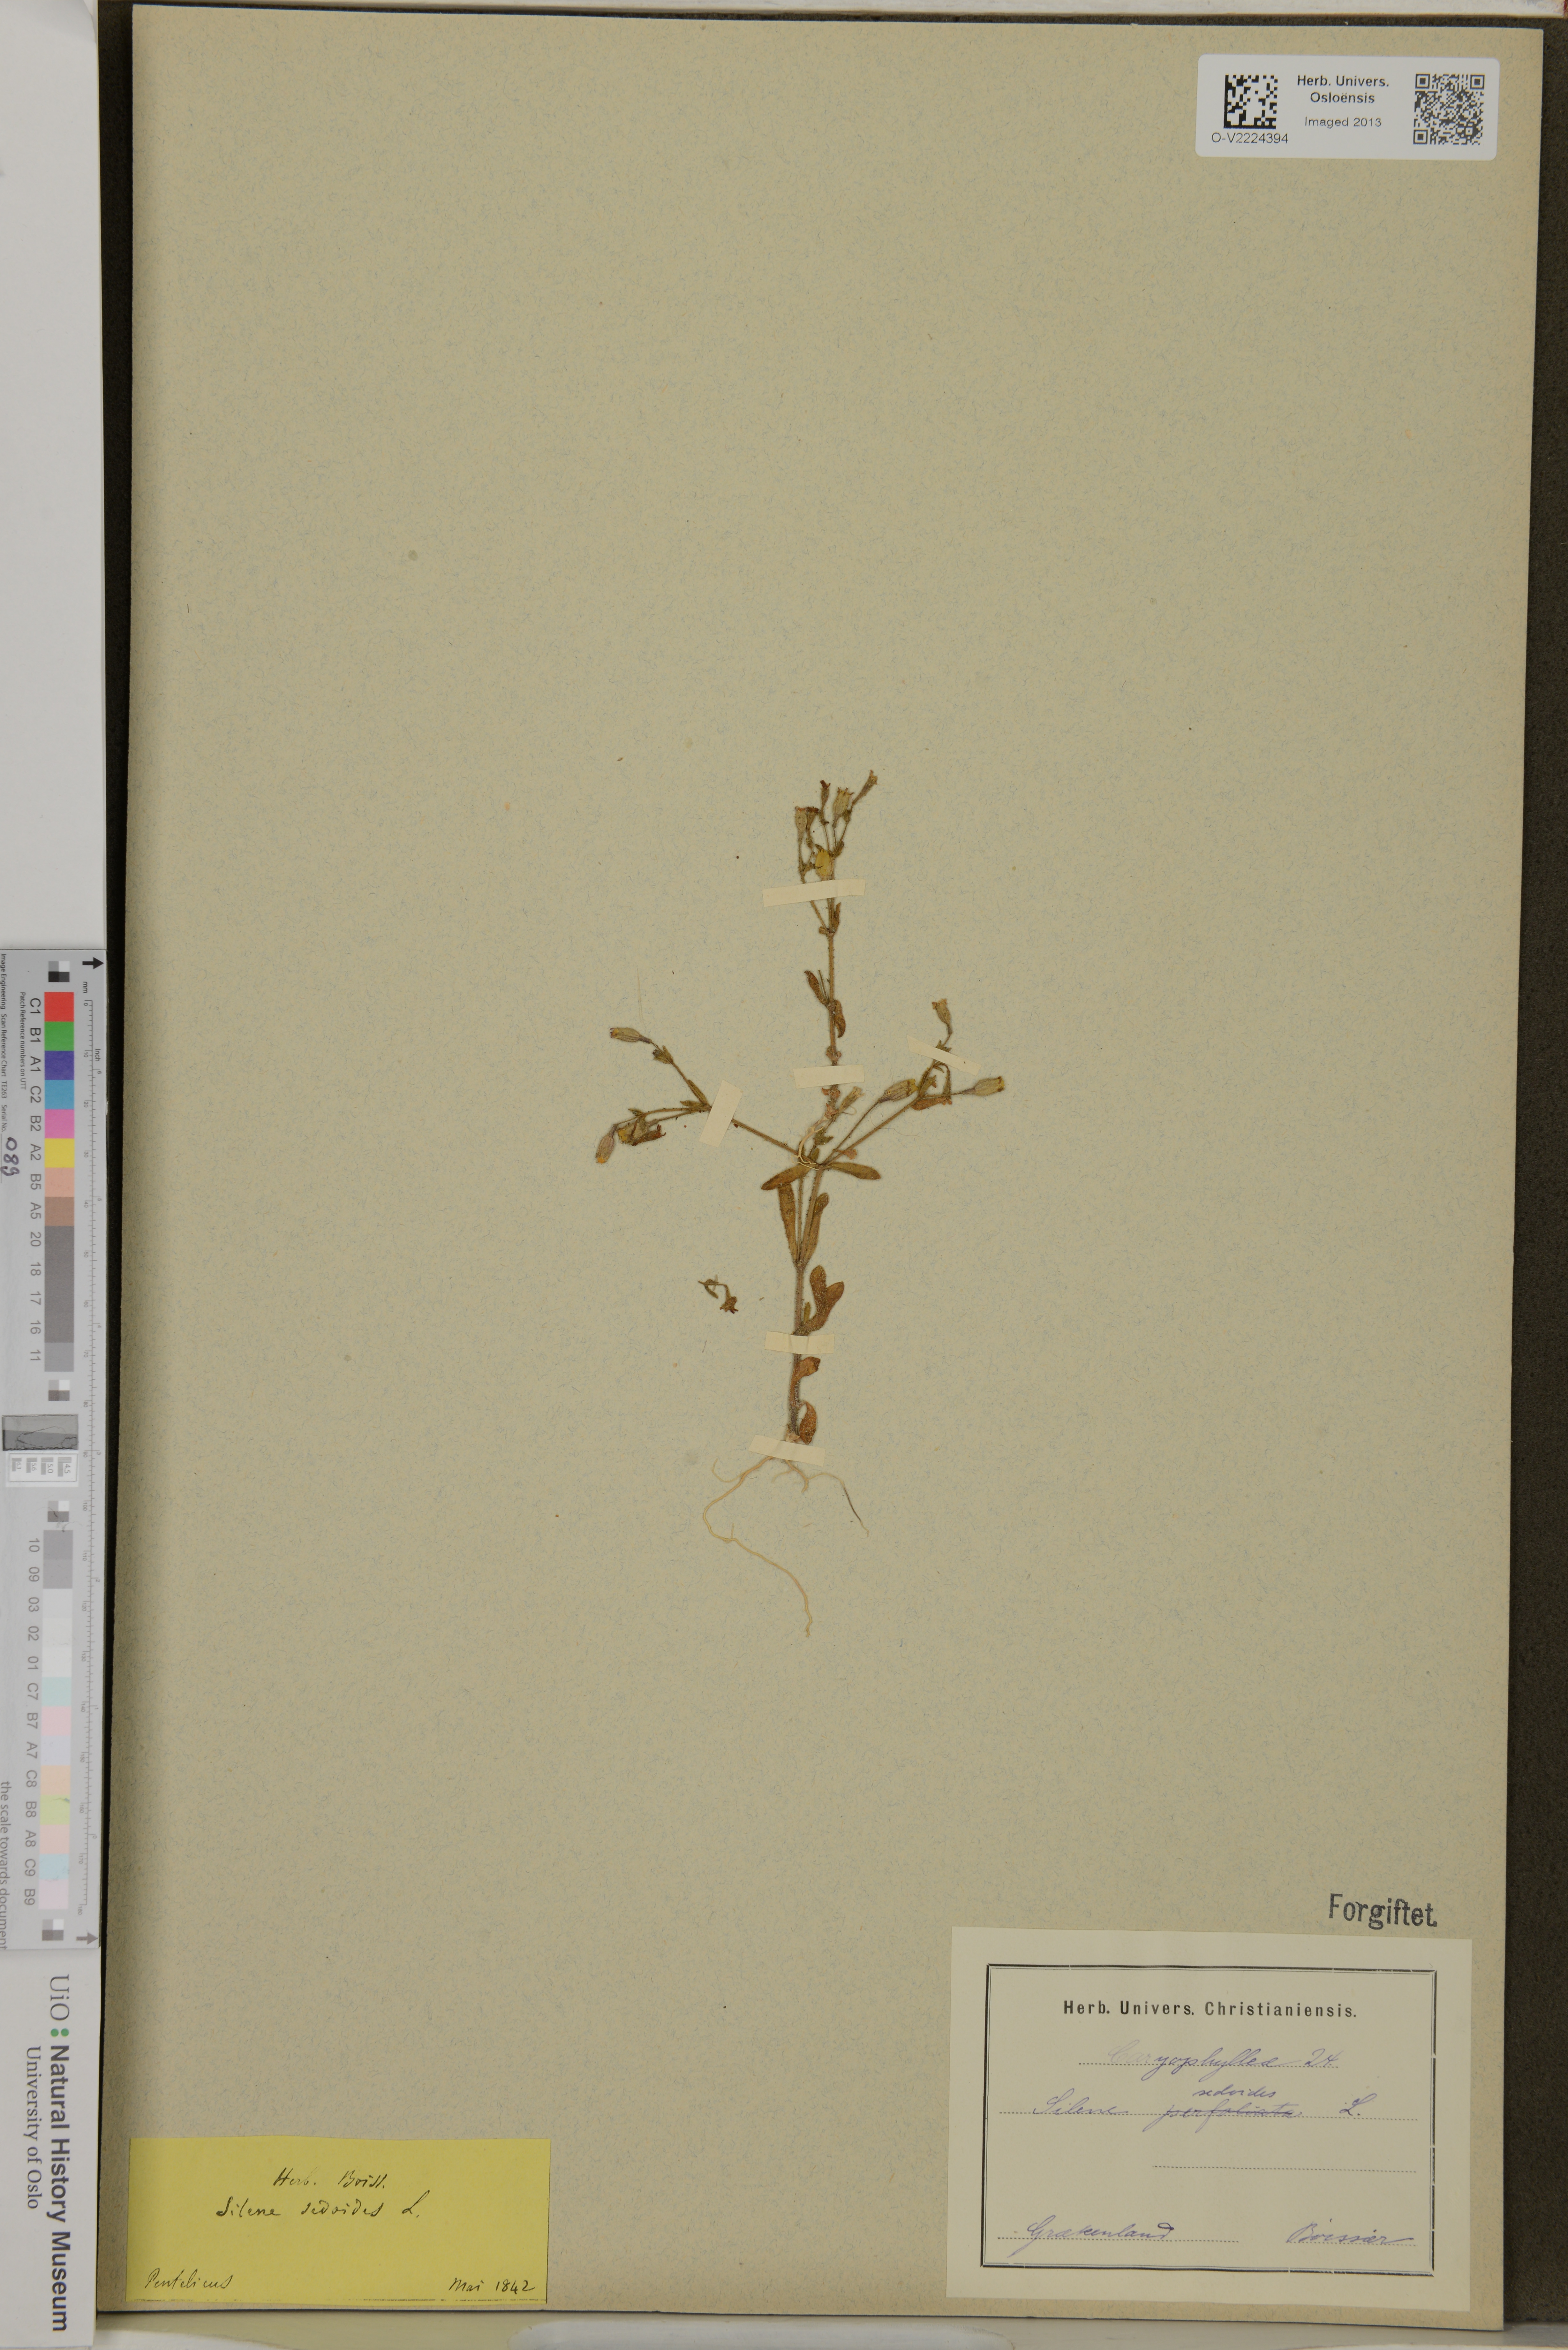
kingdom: Plantae
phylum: Tracheophyta
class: Magnoliopsida
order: Caryophyllales
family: Caryophyllaceae
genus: Silene
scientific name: Silene sedoides
